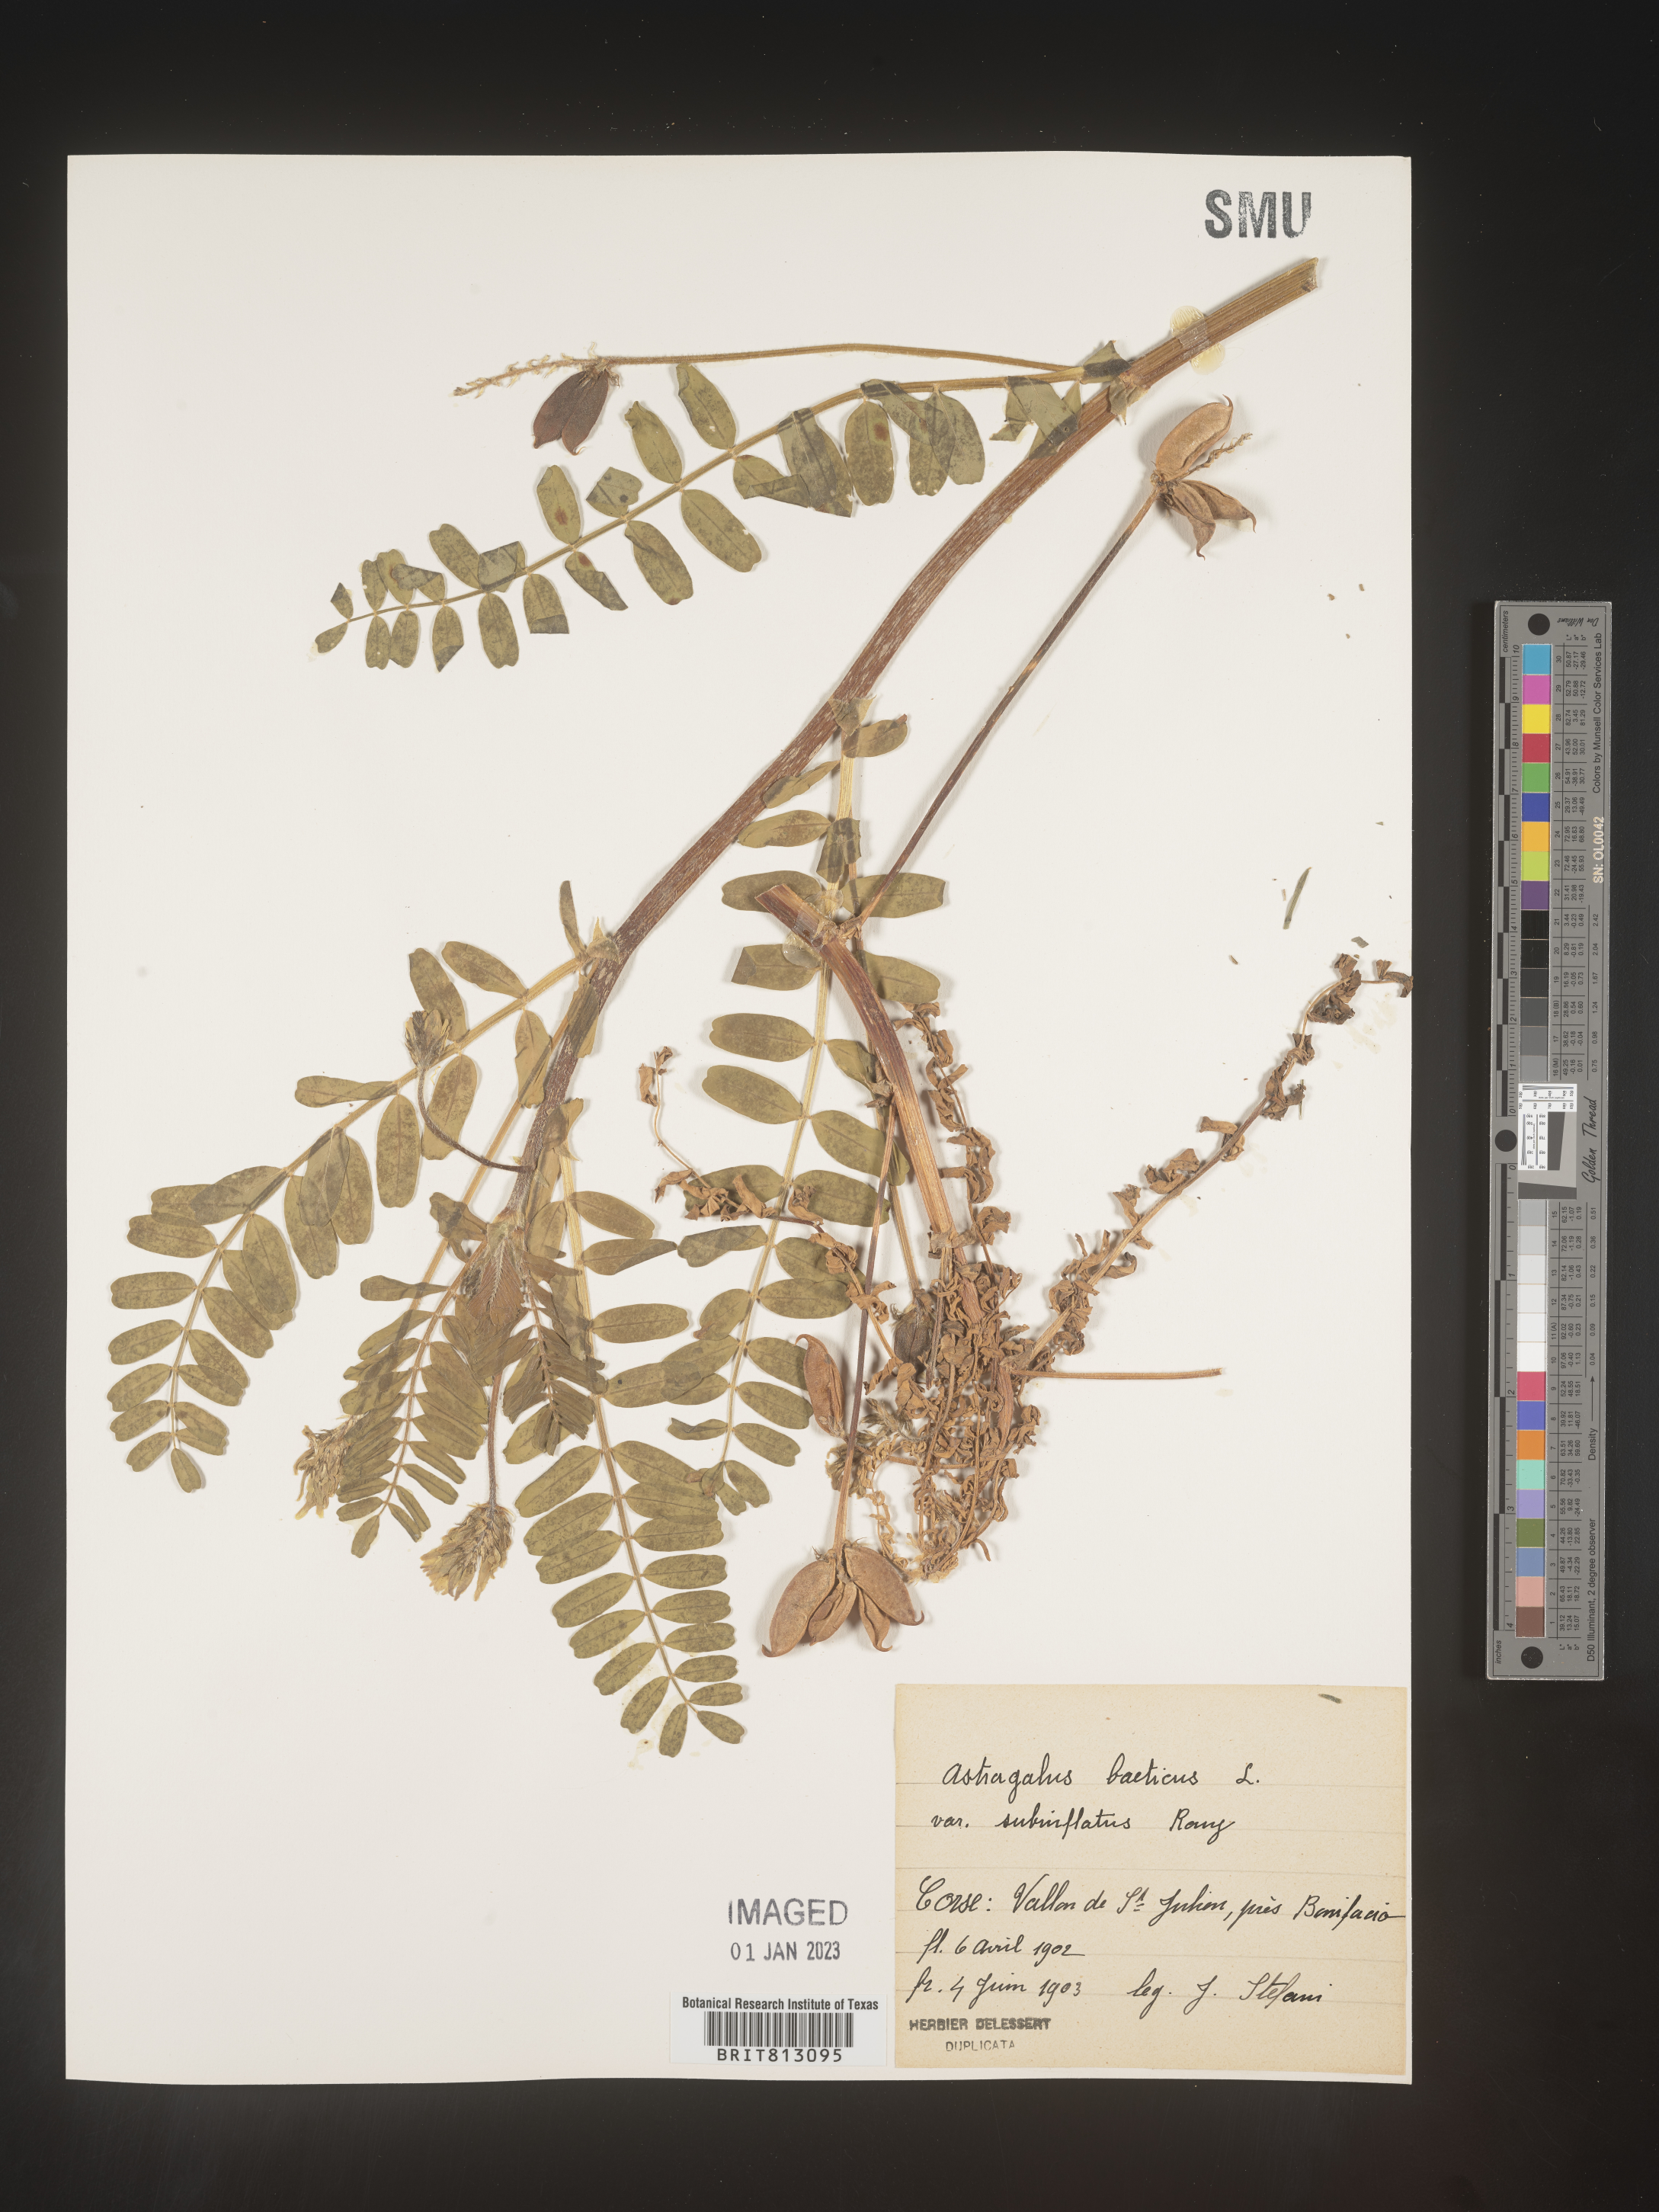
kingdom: Plantae
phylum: Tracheophyta
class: Magnoliopsida
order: Fabales
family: Fabaceae
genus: Astragalus
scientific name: Astragalus
